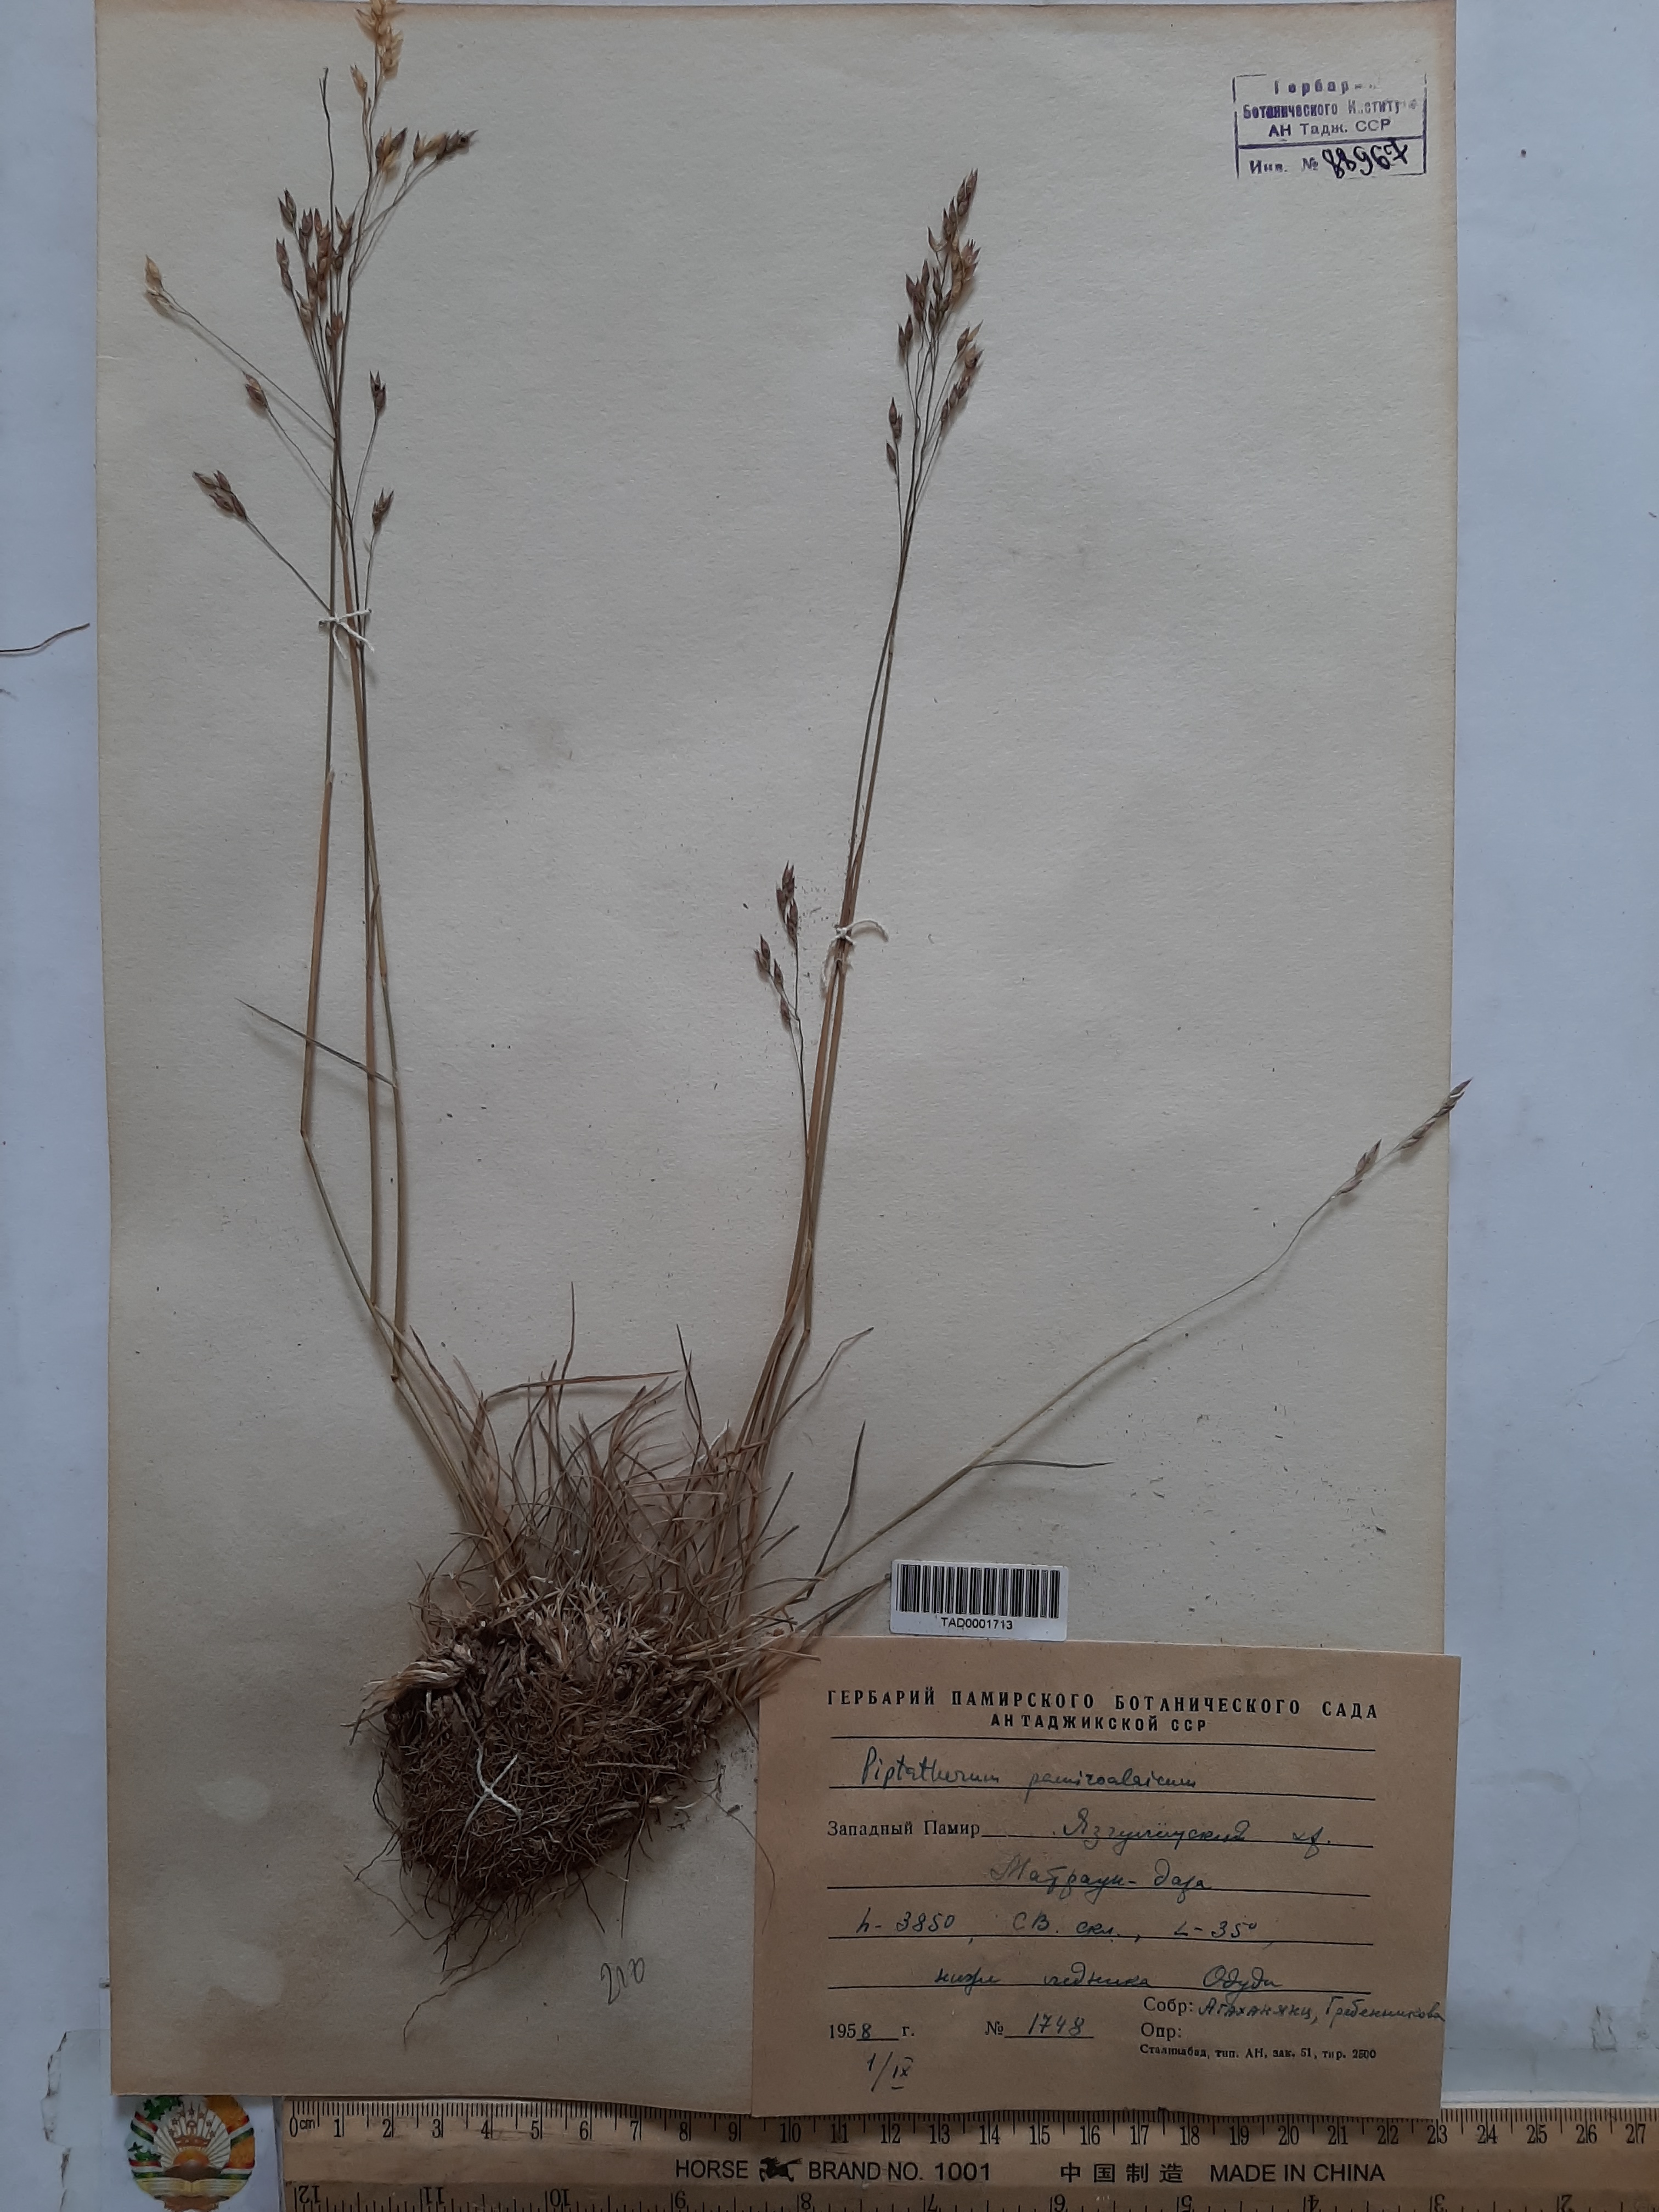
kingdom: Plantae
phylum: Tracheophyta
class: Liliopsida
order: Poales
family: Poaceae
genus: Piptatherum
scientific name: Piptatherum pamiralaicum
